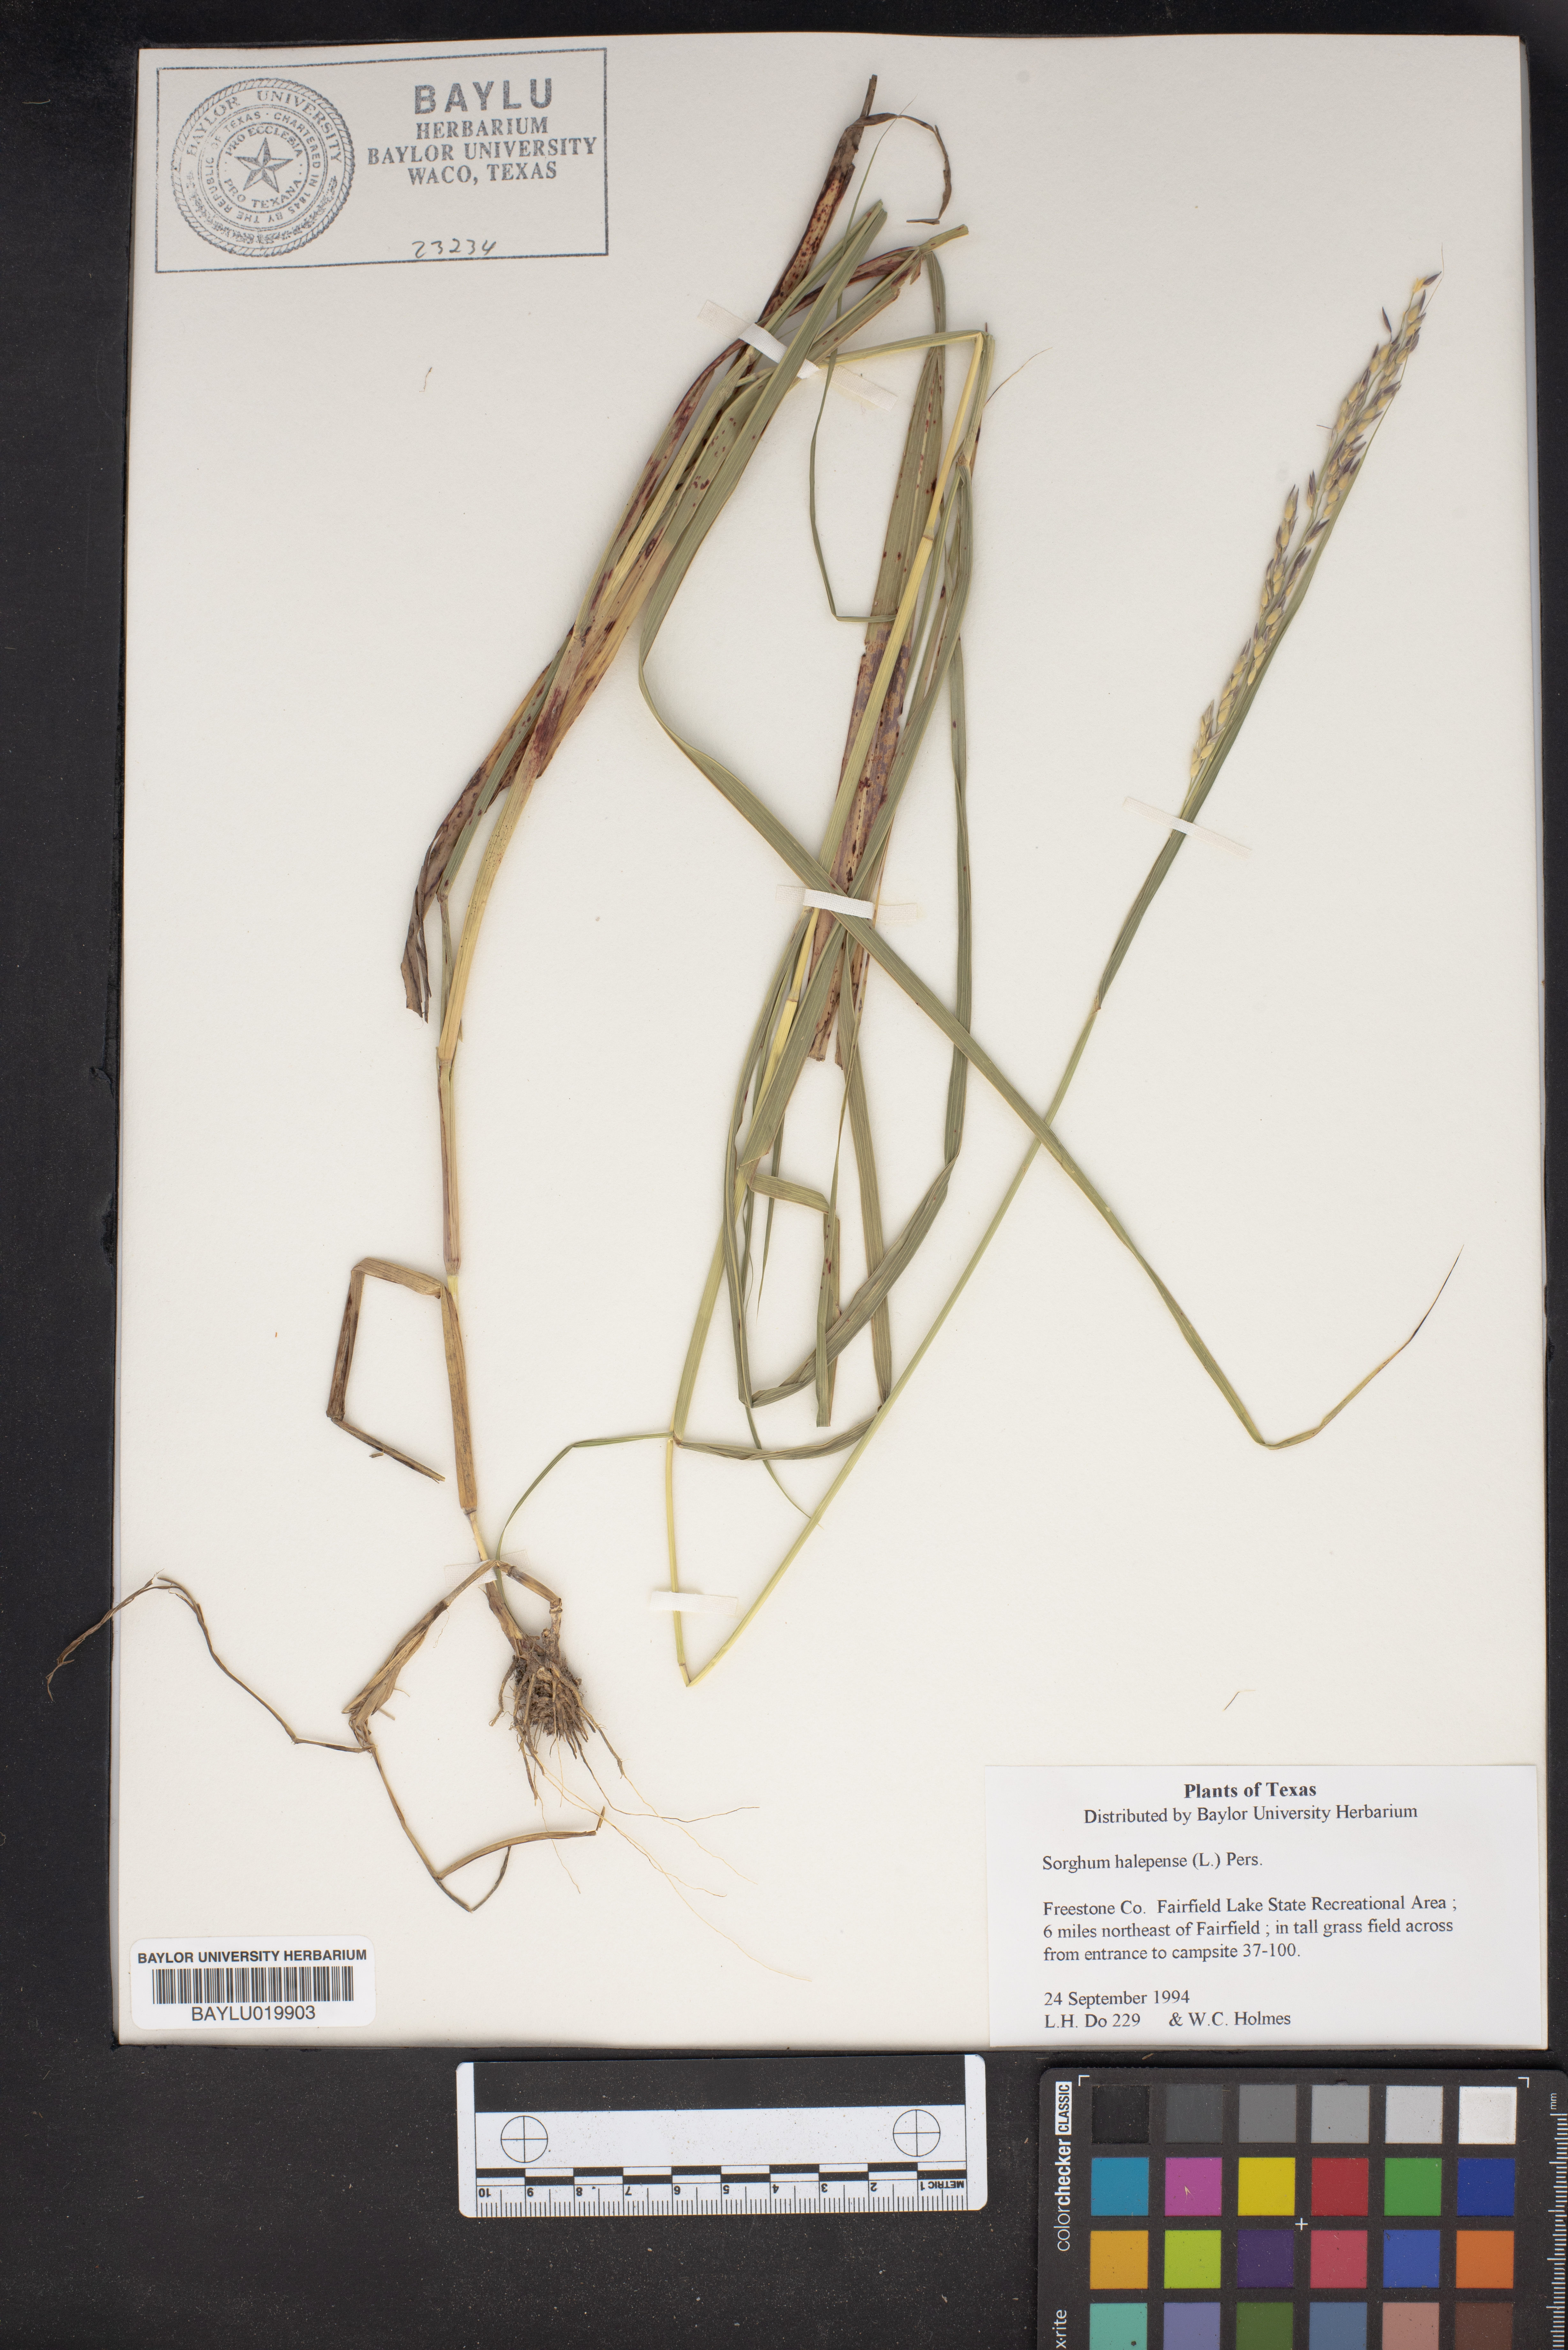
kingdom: Plantae
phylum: Tracheophyta
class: Liliopsida
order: Poales
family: Poaceae
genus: Sorghum
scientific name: Sorghum halepense
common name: Johnson-grass
